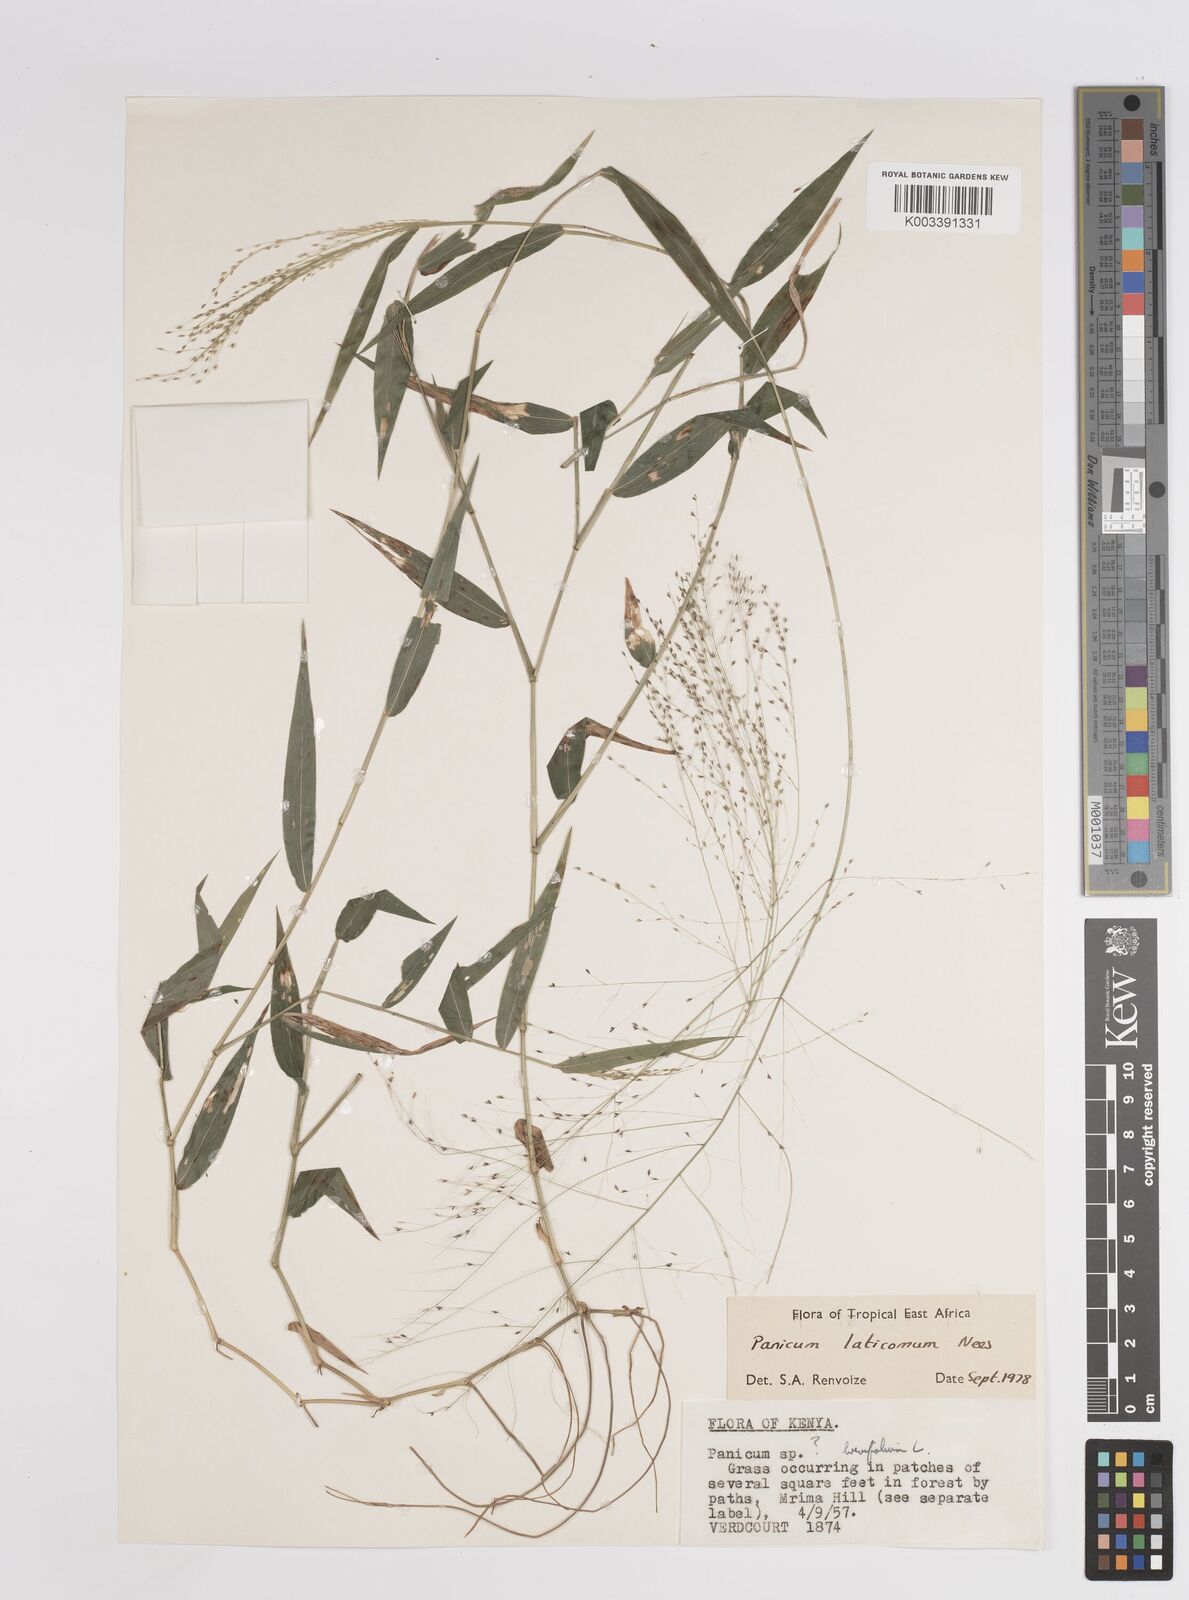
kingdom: Plantae
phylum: Tracheophyta
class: Liliopsida
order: Poales
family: Poaceae
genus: Panicum
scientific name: Panicum laticomum
